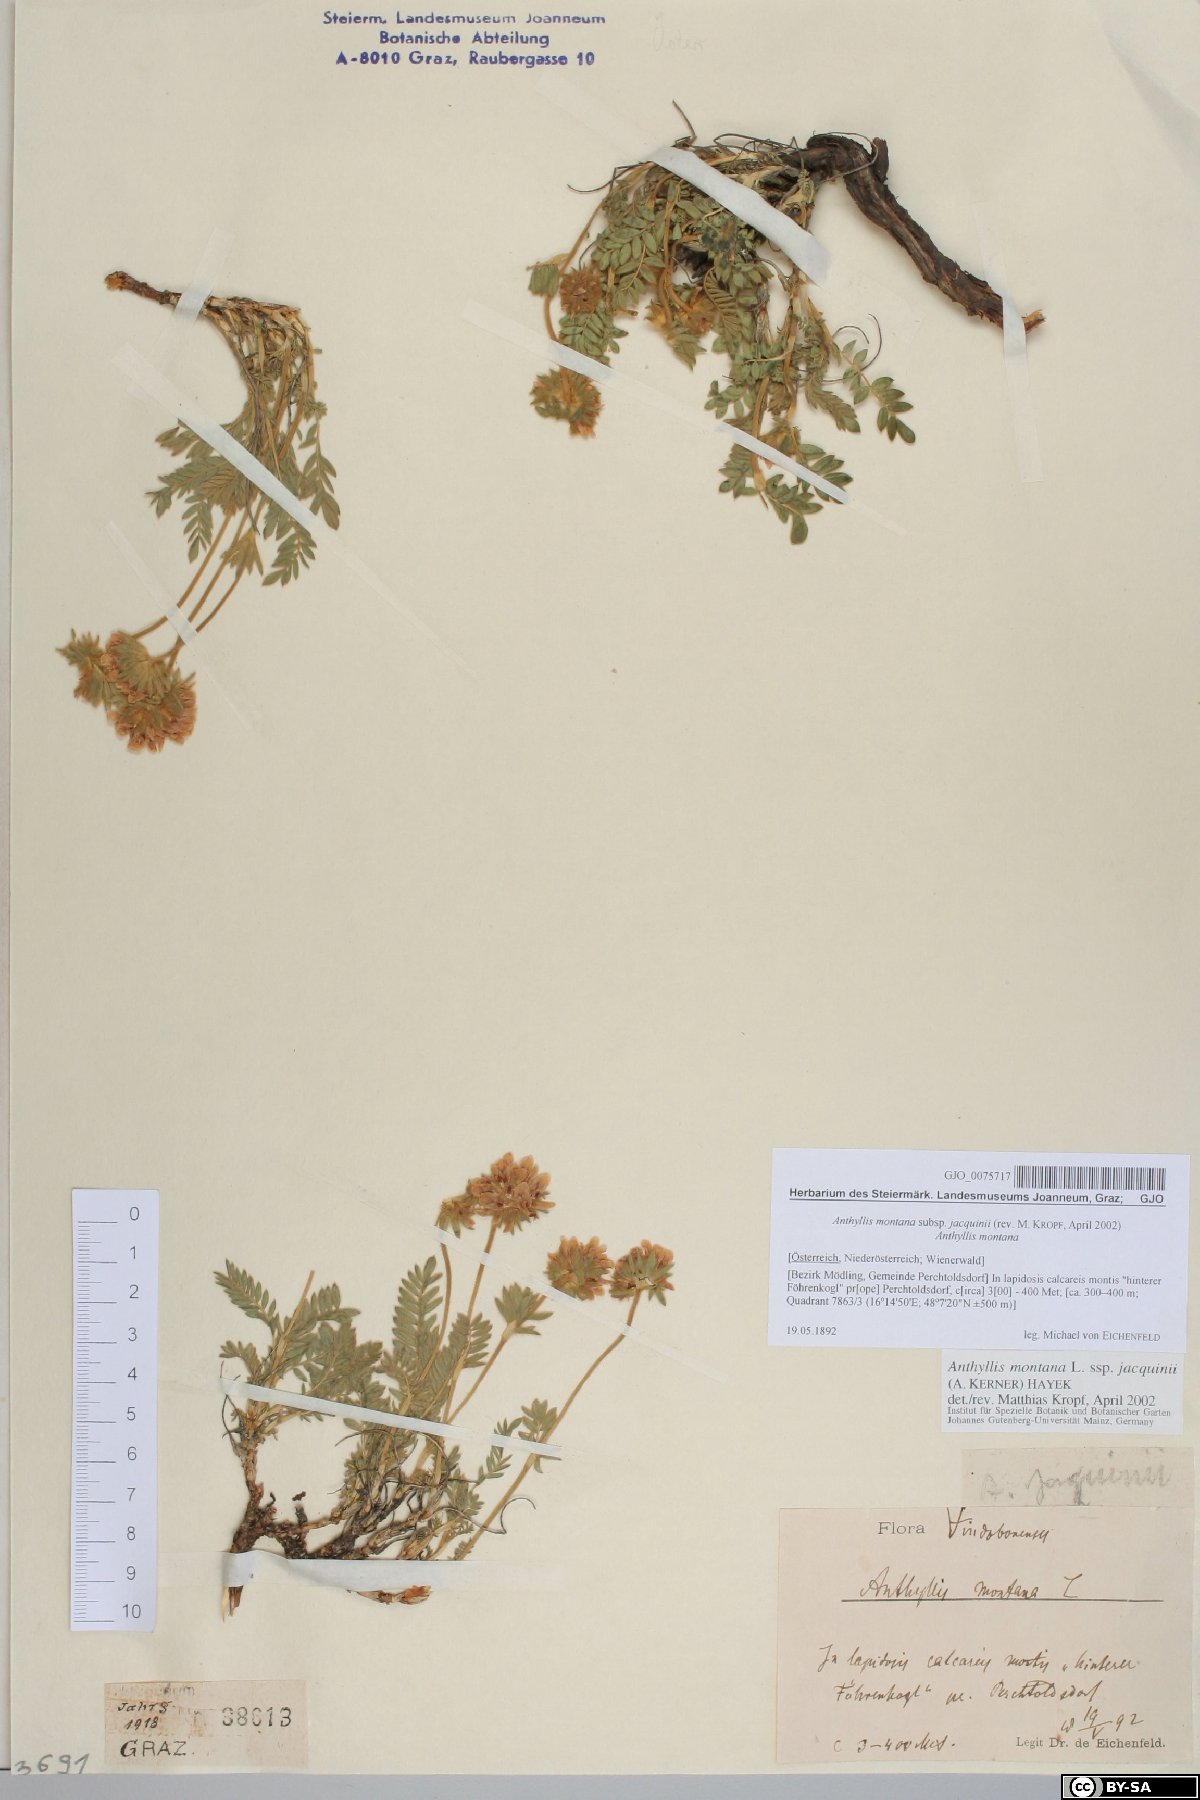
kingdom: Plantae
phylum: Tracheophyta
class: Magnoliopsida
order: Fabales
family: Fabaceae
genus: Anthyllis
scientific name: Anthyllis montana
